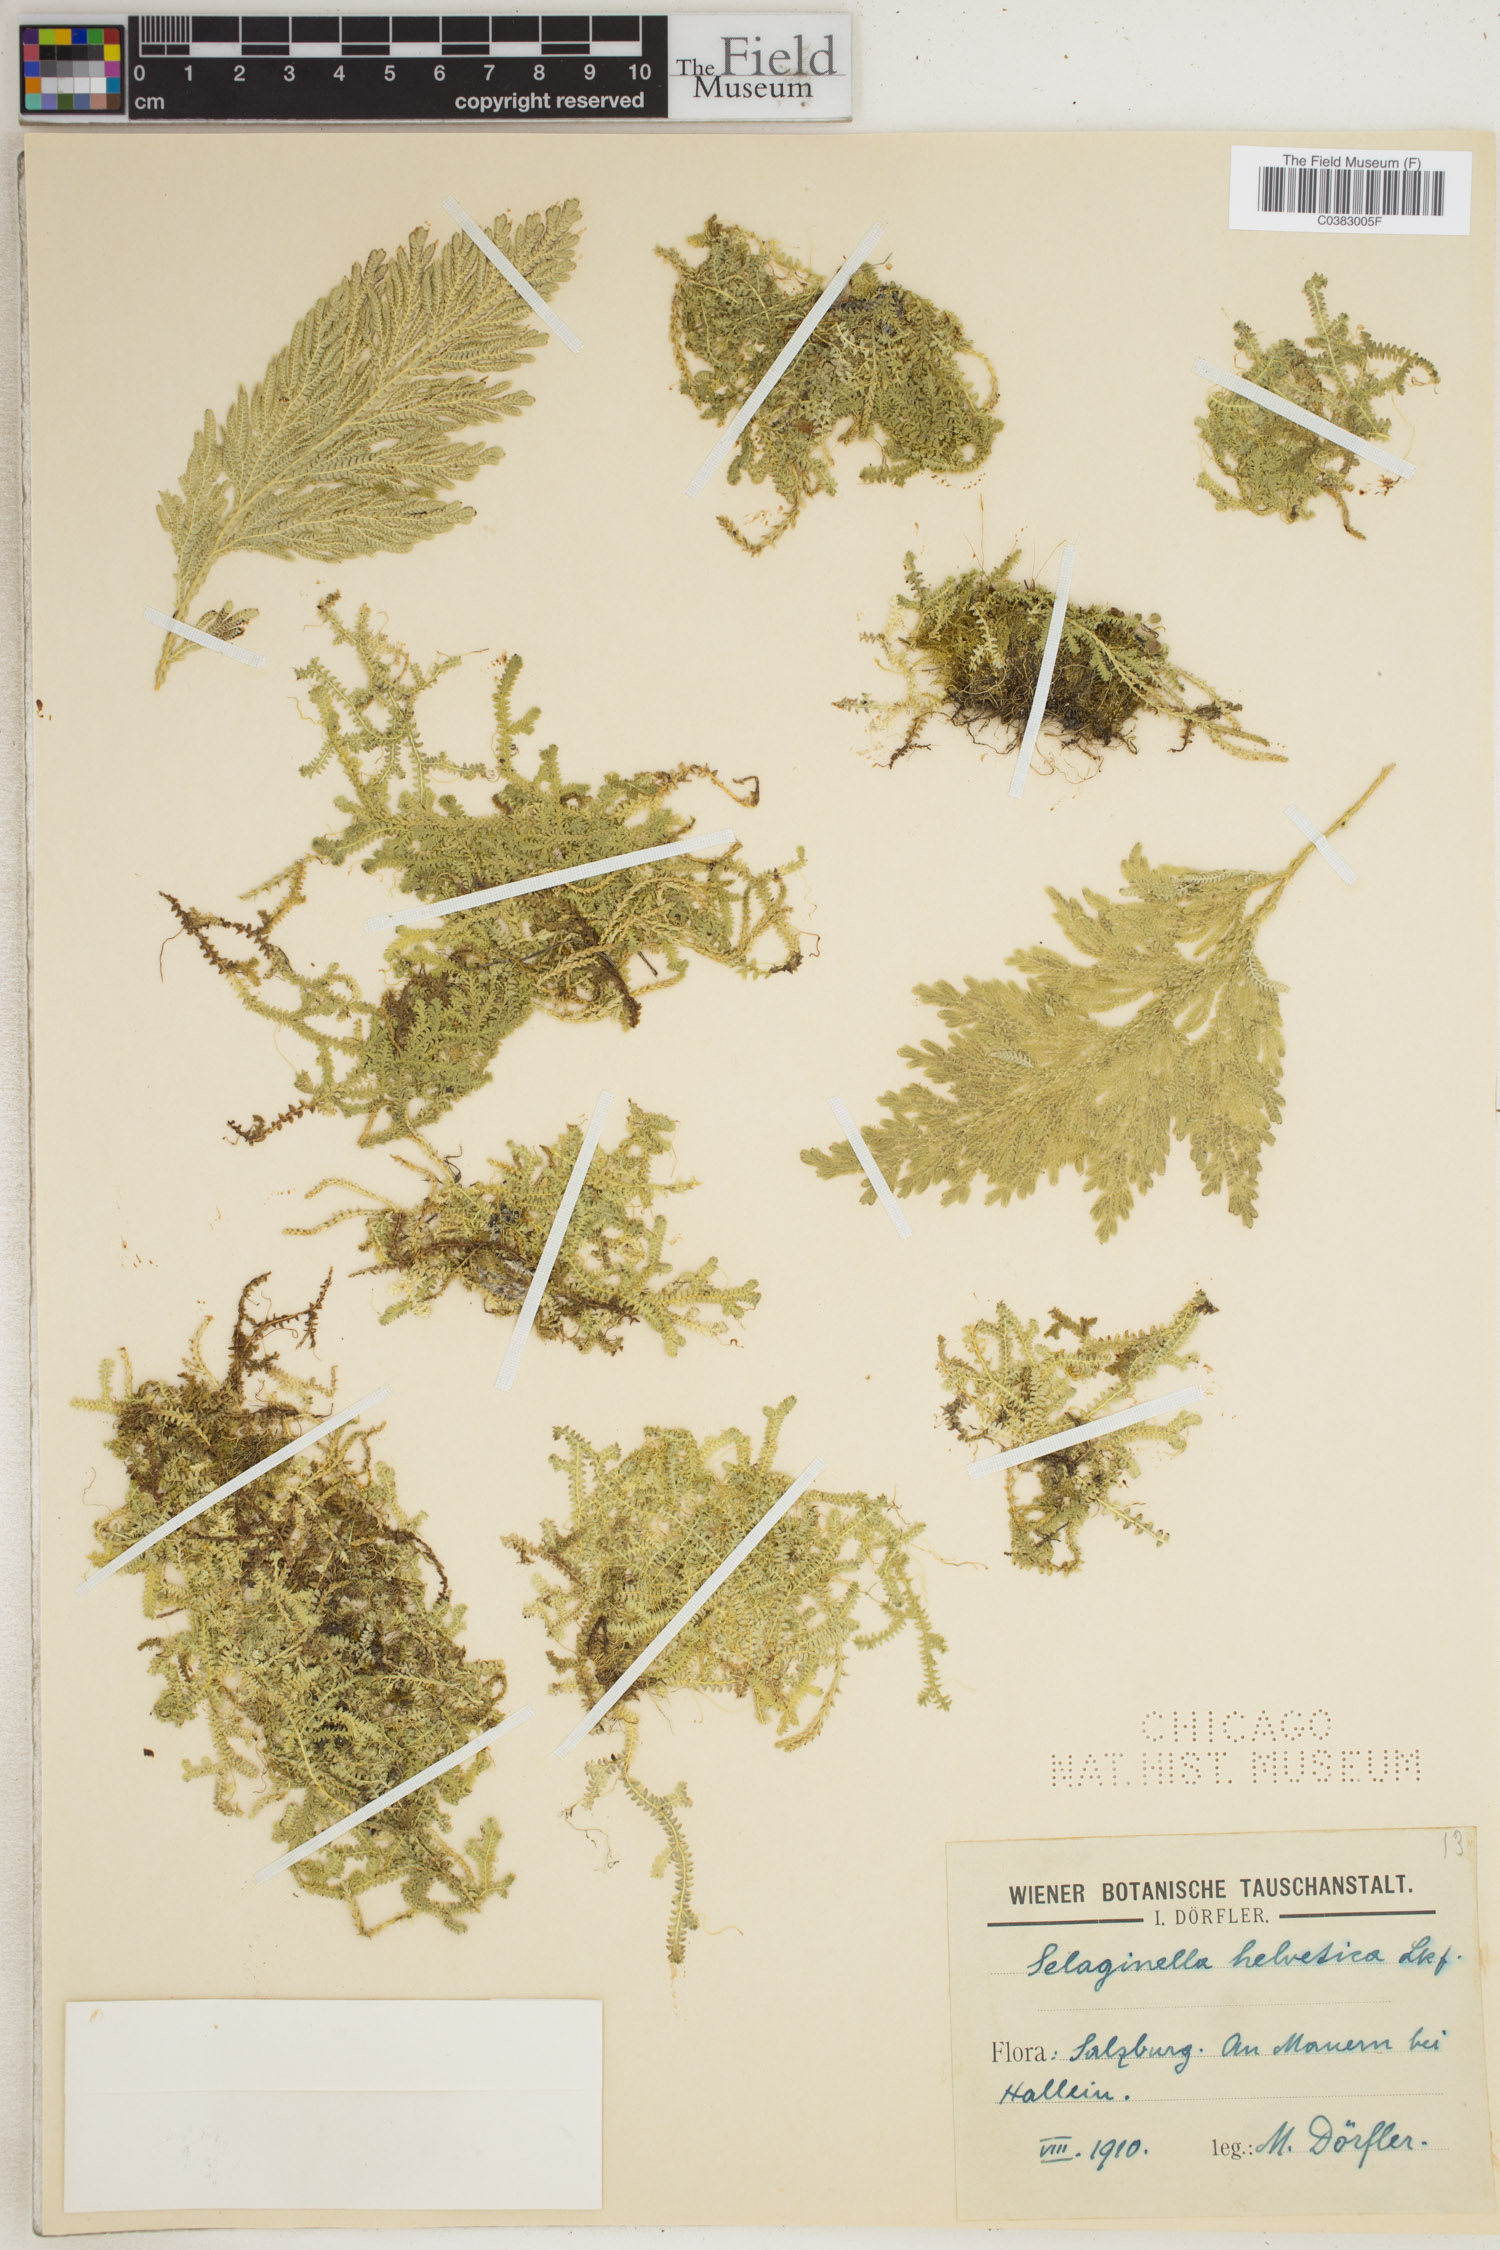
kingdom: Plantae
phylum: Tracheophyta
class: Lycopodiopsida
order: Selaginellales
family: Selaginellaceae
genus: Selaginella
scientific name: Selaginella helvetica
